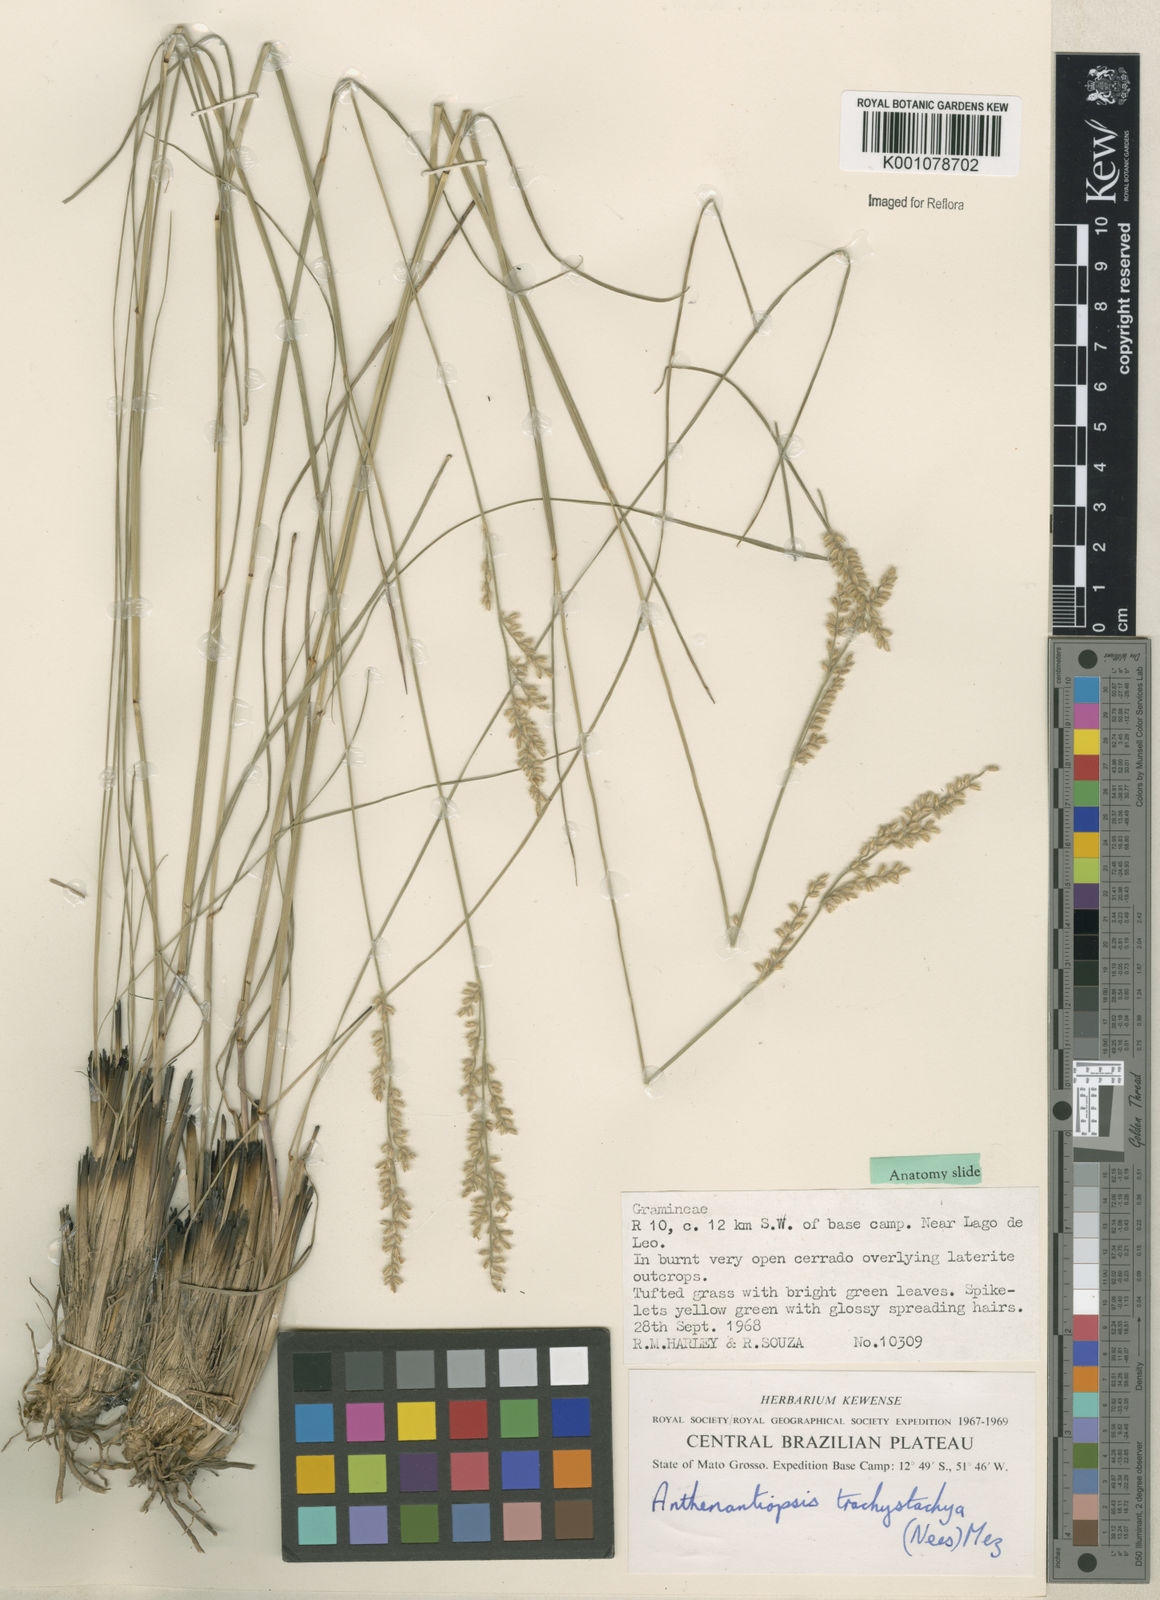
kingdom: Plantae
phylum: Tracheophyta
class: Liliopsida
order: Poales
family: Poaceae
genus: Anthaenantiopsis
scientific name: Anthaenantiopsis trachystachya
